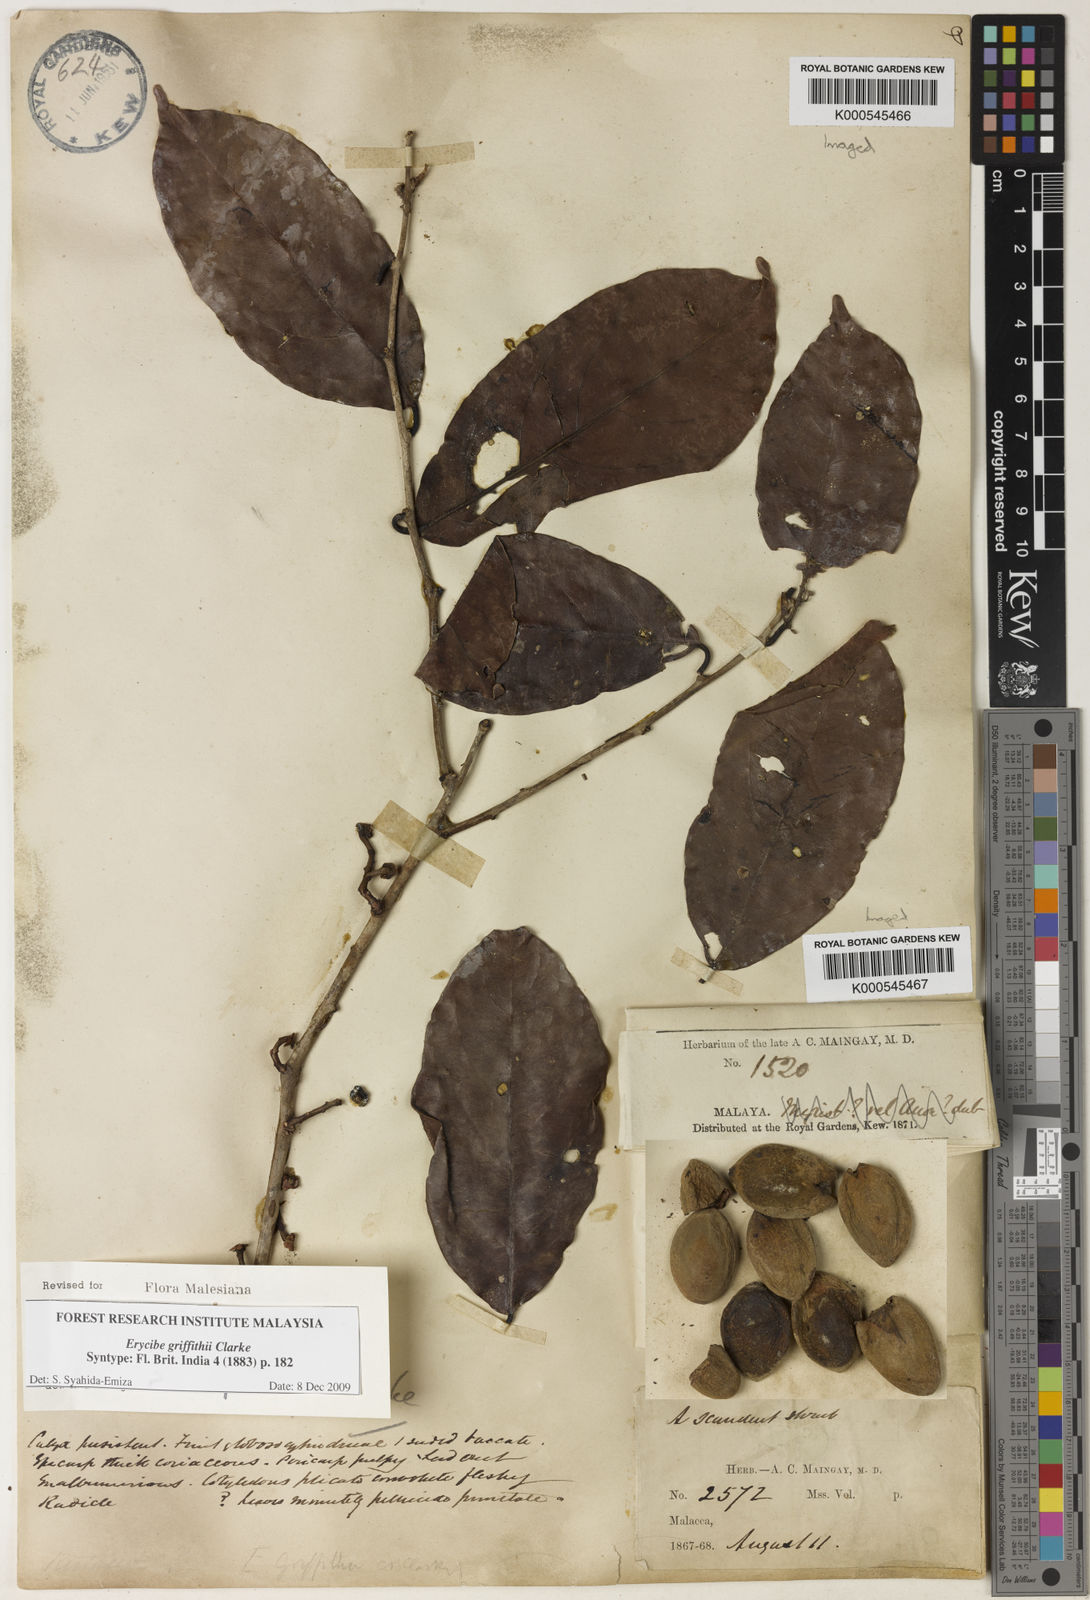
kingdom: Plantae
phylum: Tracheophyta
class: Magnoliopsida
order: Solanales
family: Convolvulaceae
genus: Erycibe
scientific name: Erycibe griffithii
